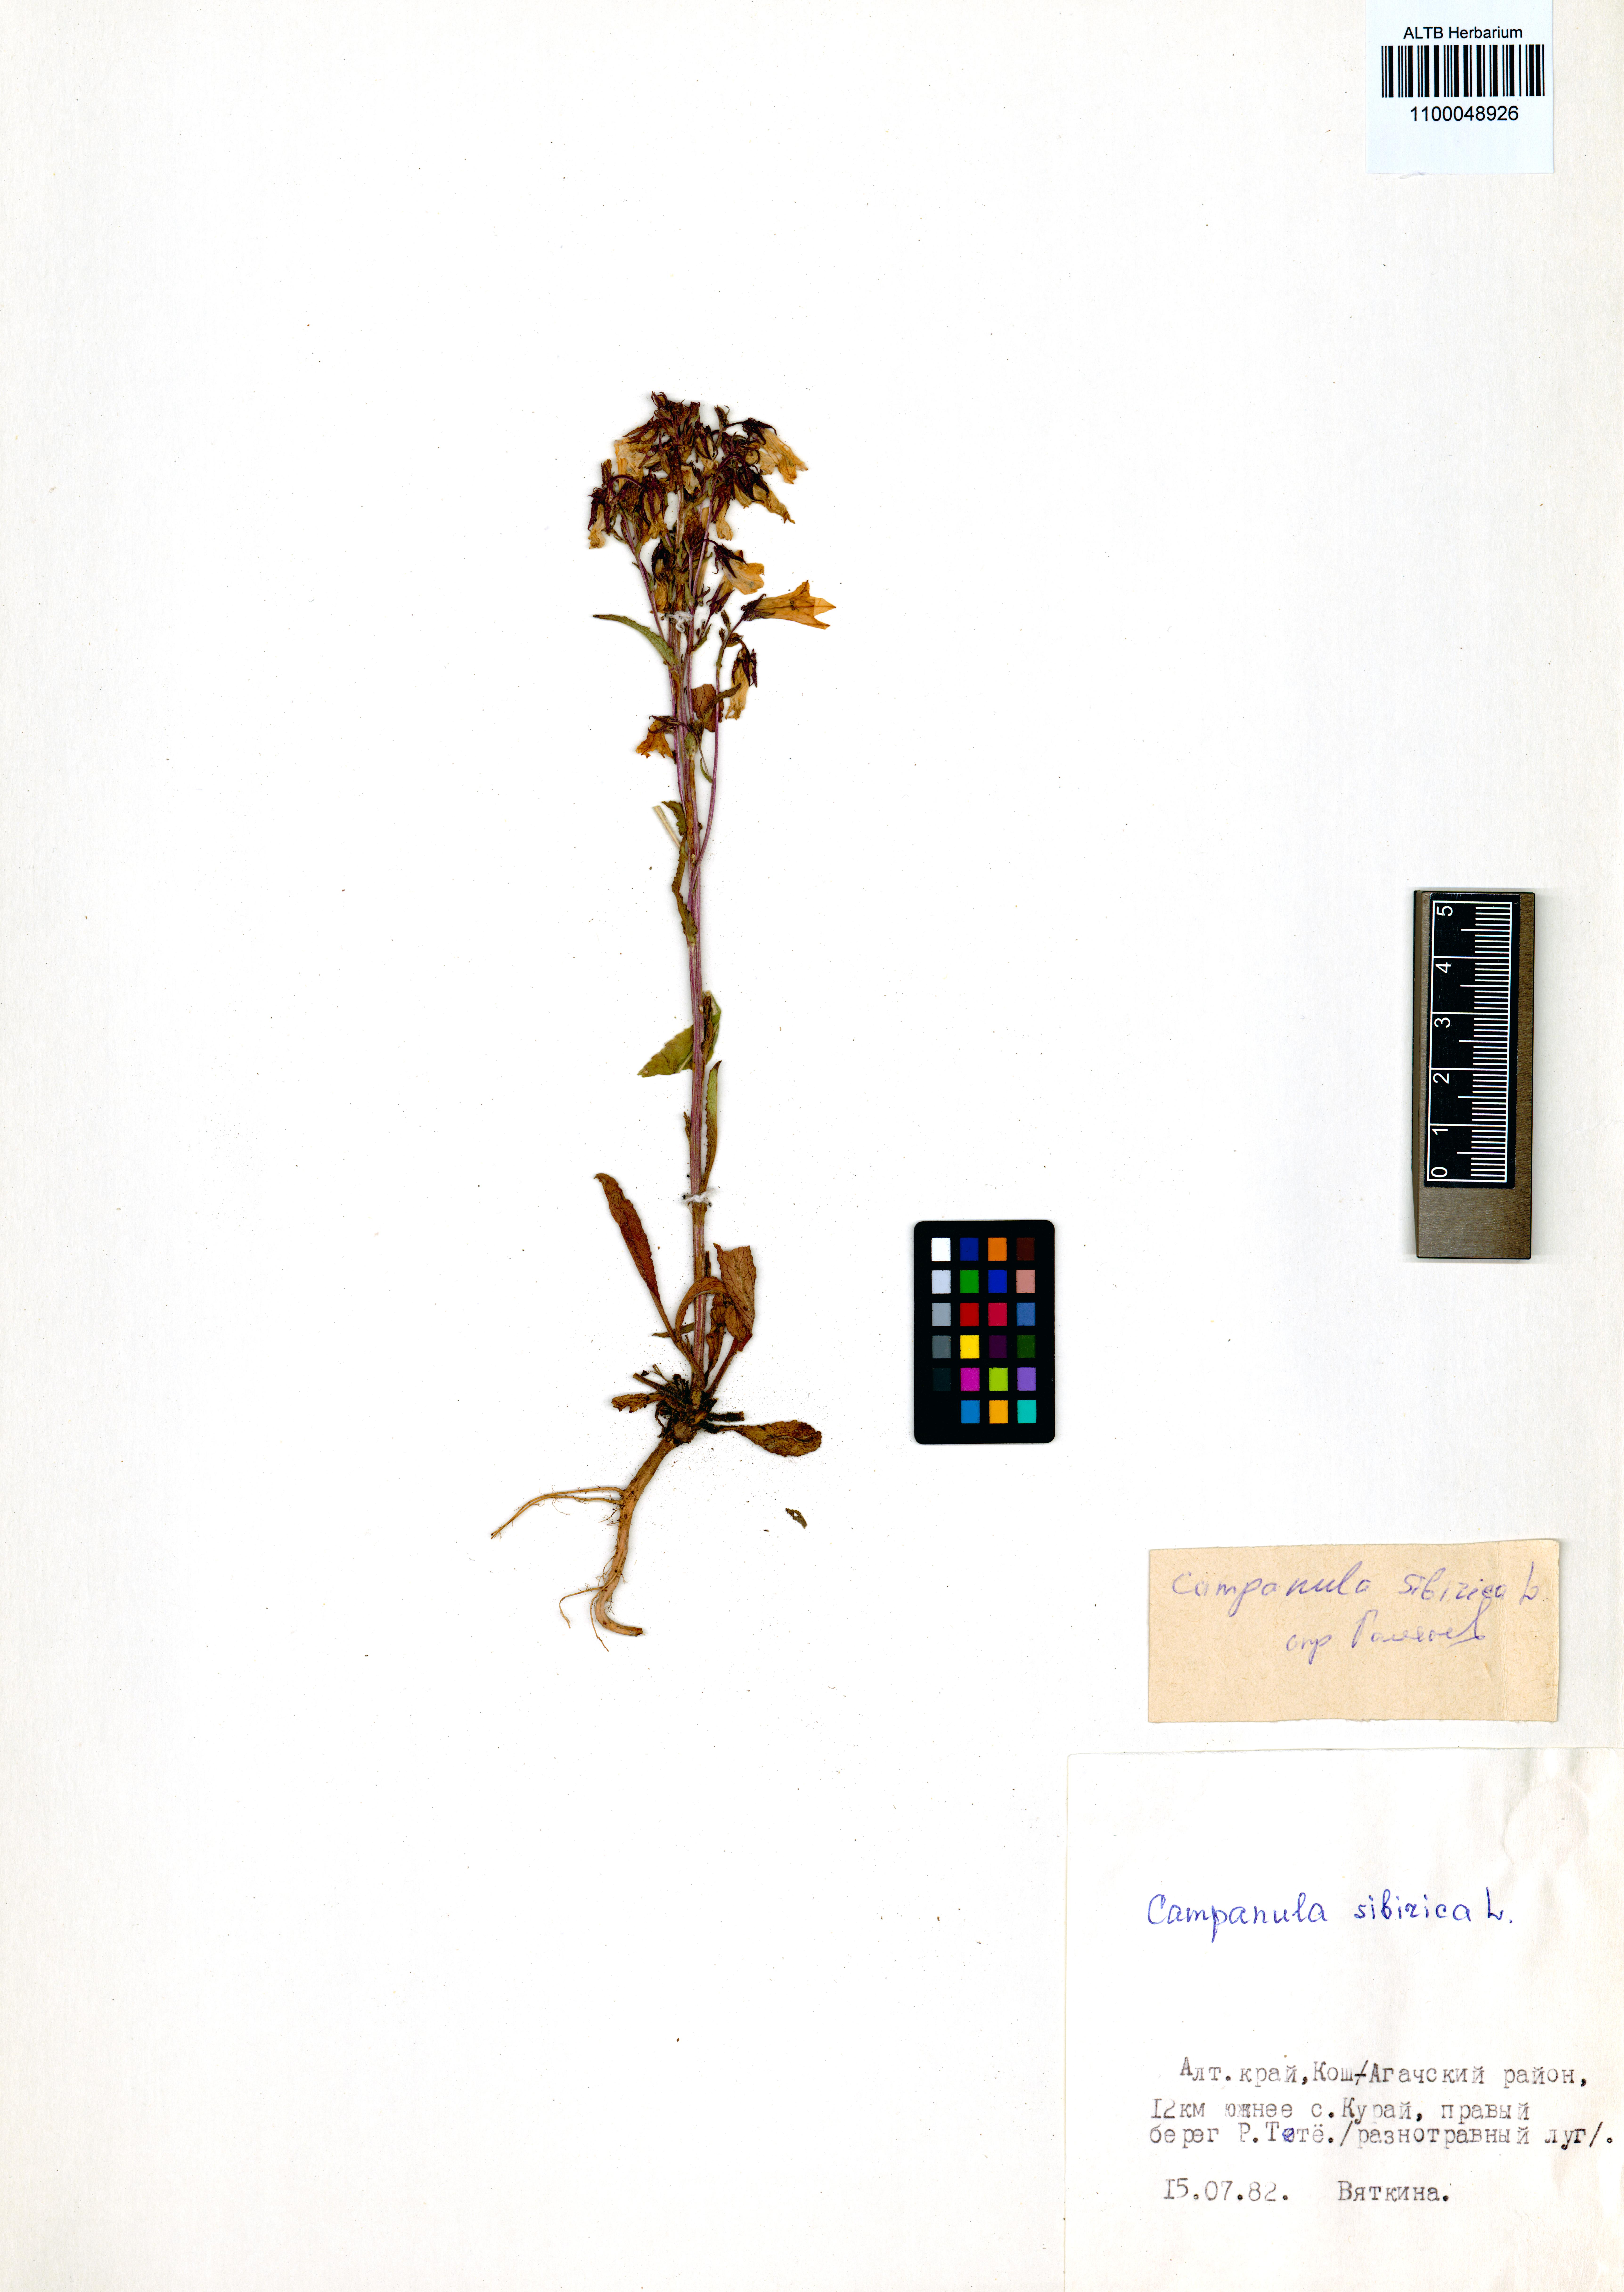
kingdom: Plantae
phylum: Tracheophyta
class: Magnoliopsida
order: Asterales
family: Campanulaceae
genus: Campanula
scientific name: Campanula sibirica
